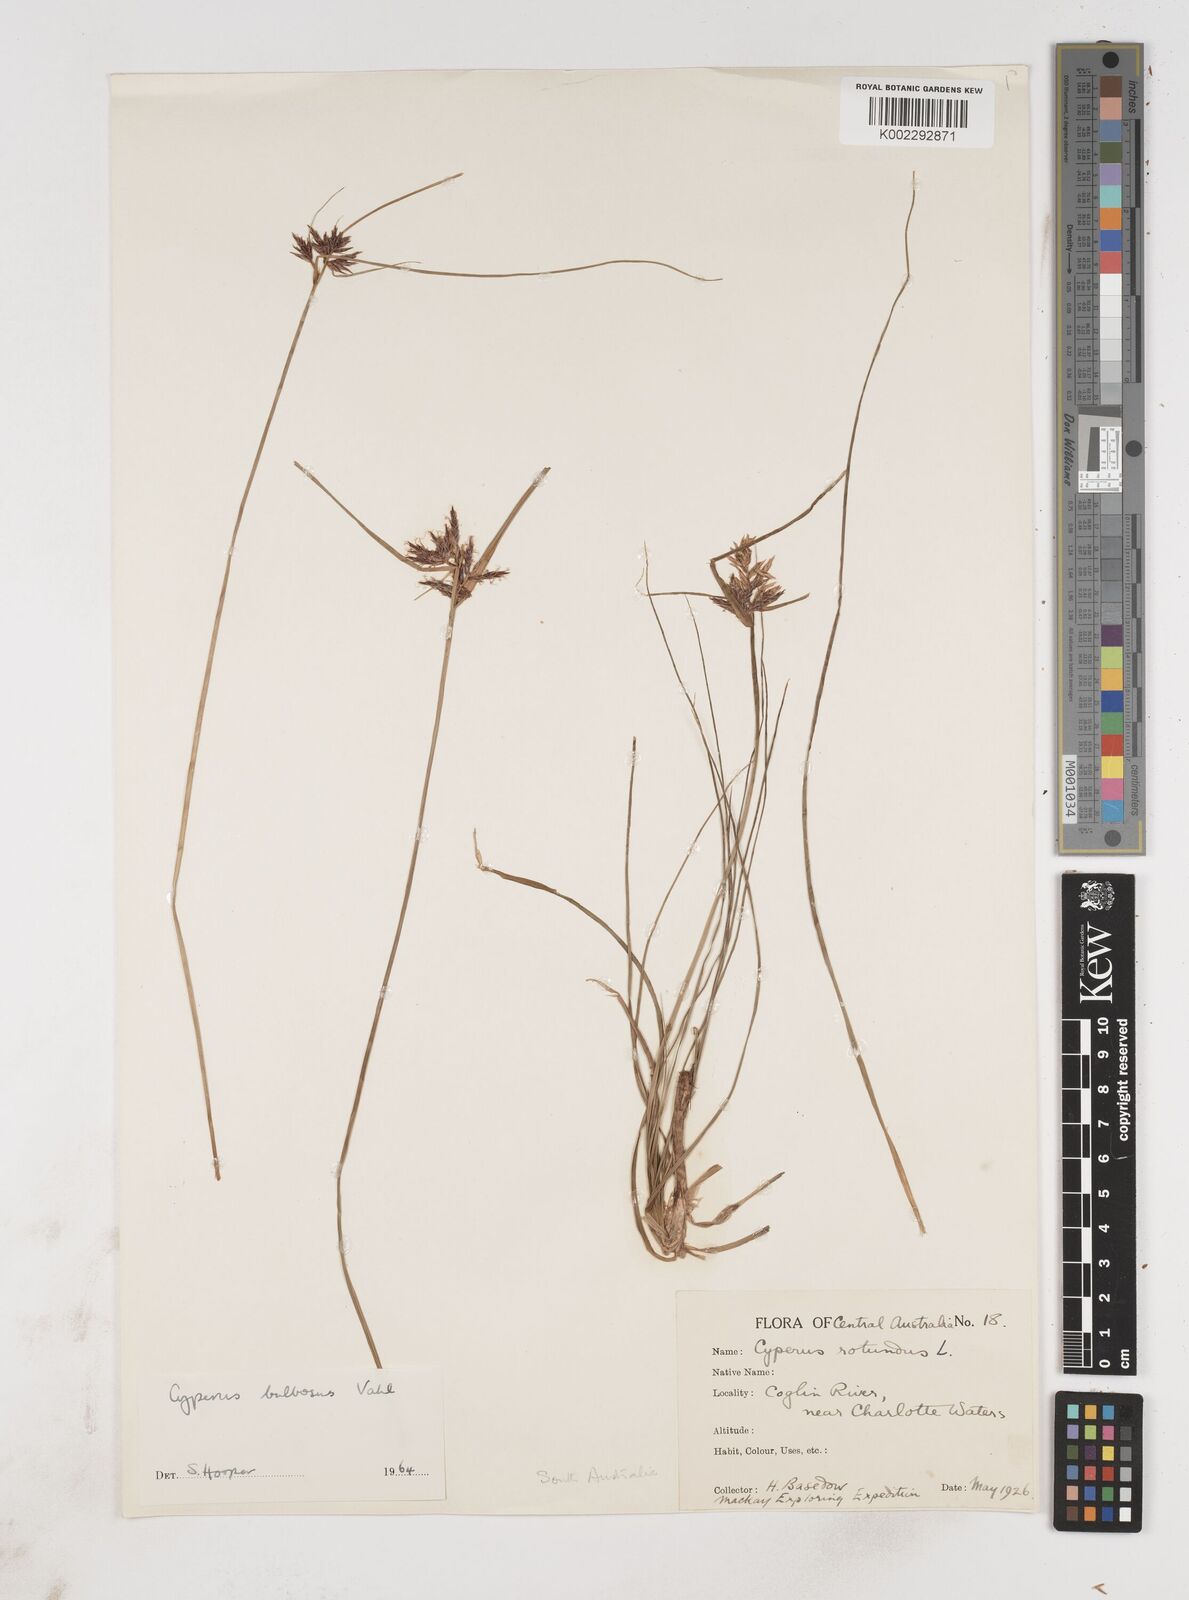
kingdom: Plantae
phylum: Tracheophyta
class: Liliopsida
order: Poales
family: Cyperaceae
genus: Cyperus
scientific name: Cyperus bulbosus
